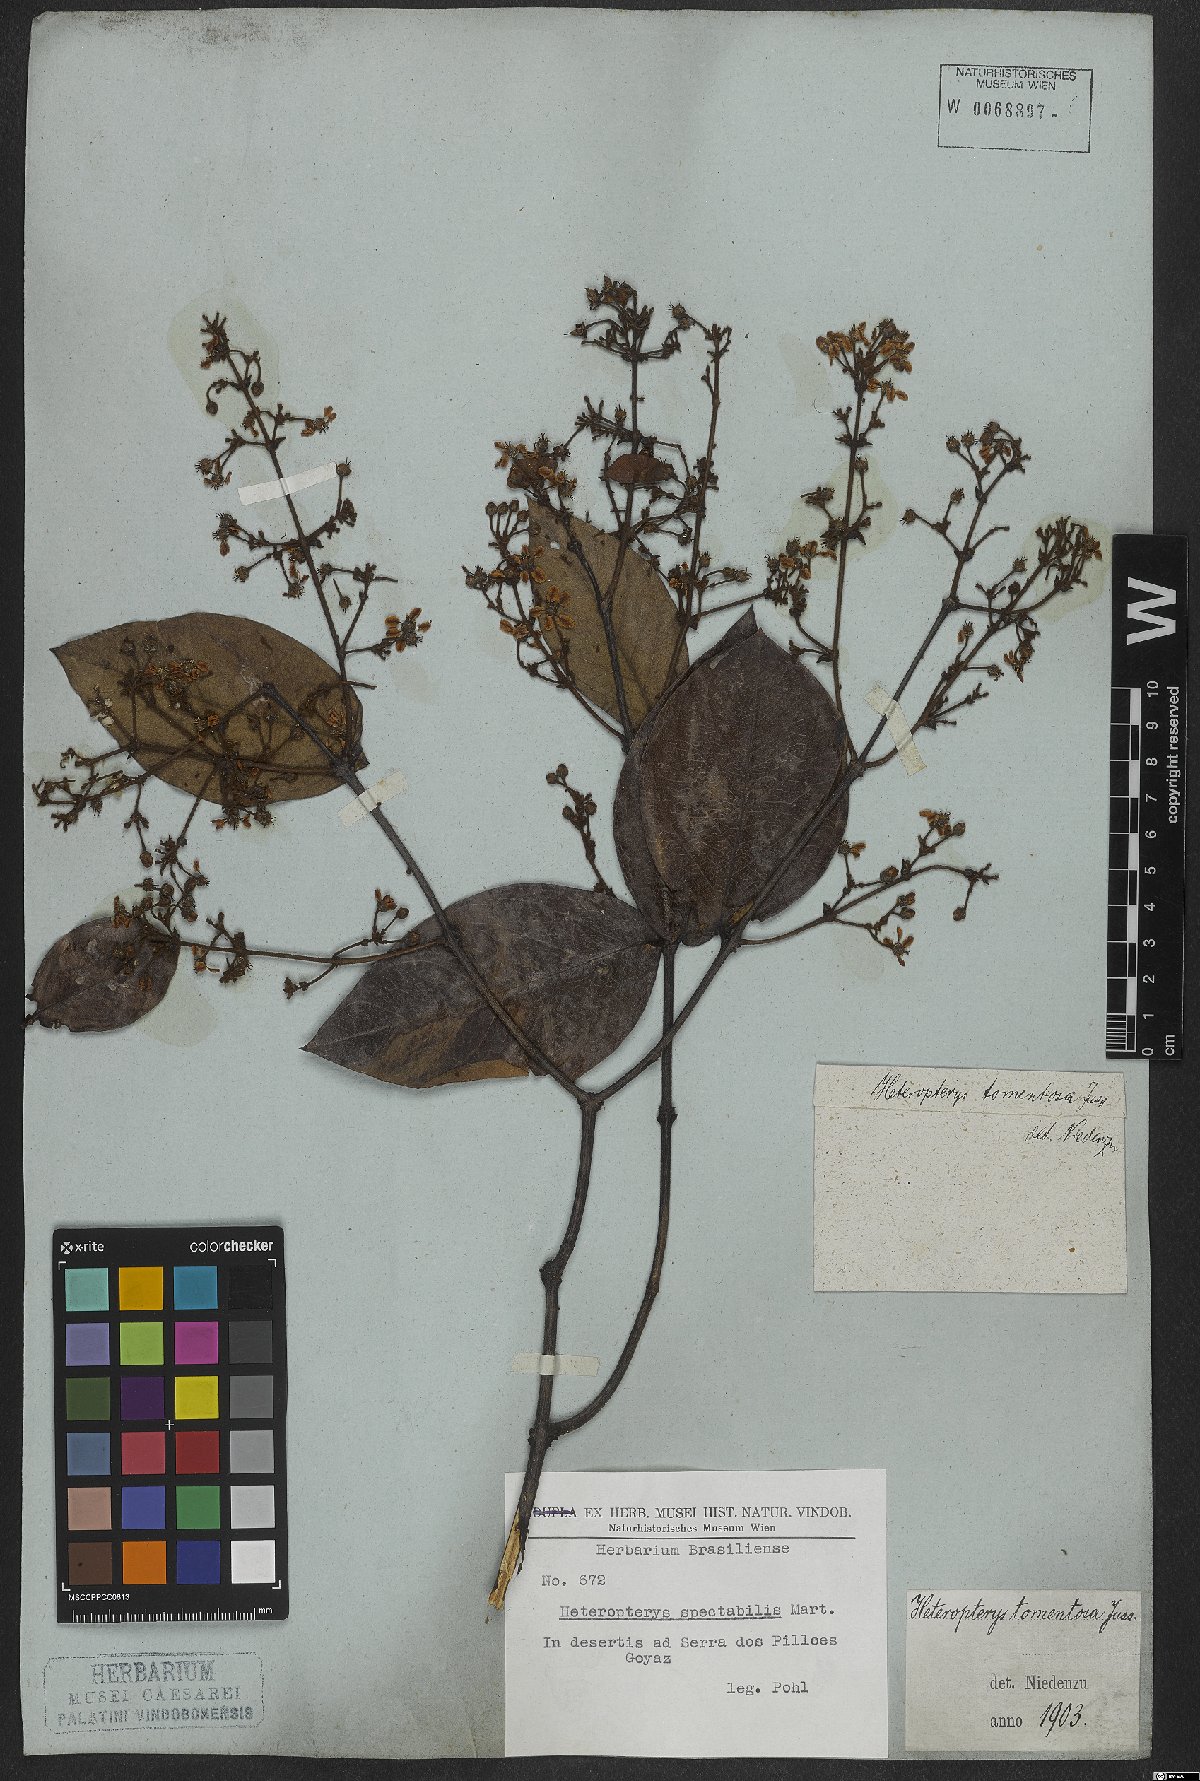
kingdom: Plantae
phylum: Tracheophyta
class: Magnoliopsida
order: Malpighiales
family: Malpighiaceae
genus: Heteropterys
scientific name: Heteropterys tomentosa
